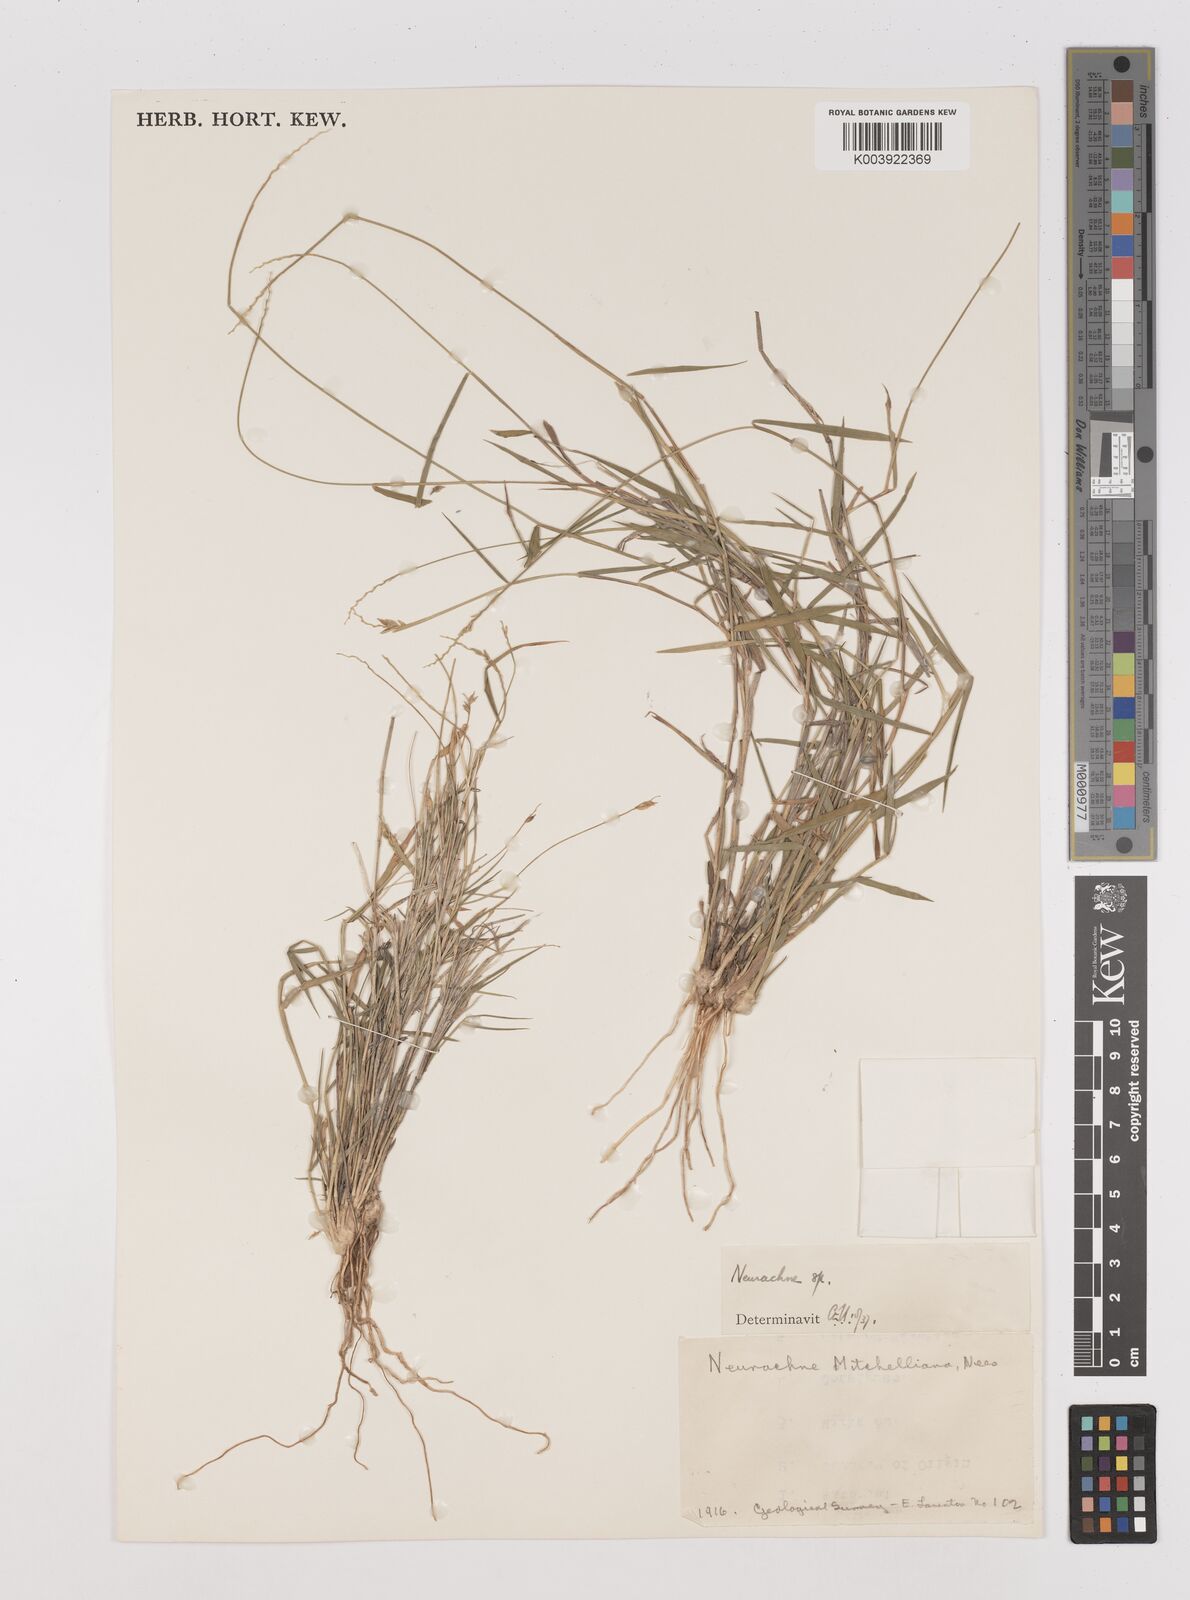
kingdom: Plantae
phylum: Tracheophyta
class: Liliopsida
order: Poales
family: Poaceae
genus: Thyridolepis
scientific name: Thyridolepis mitchelliana
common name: Rock tassel grass
